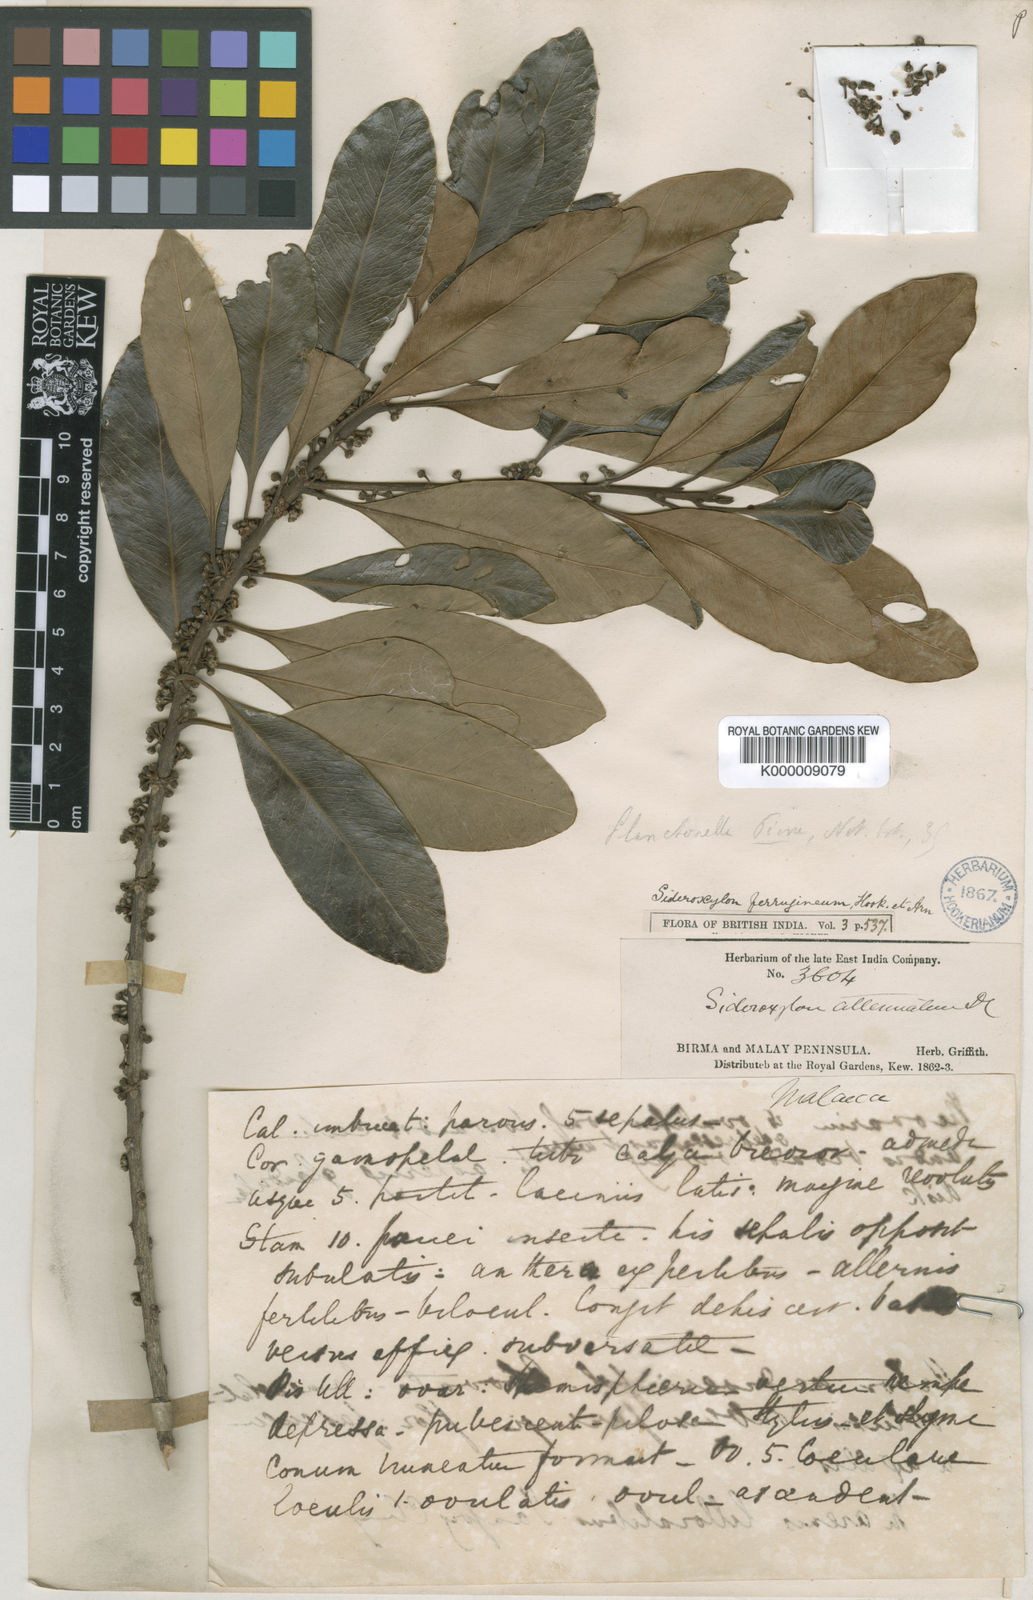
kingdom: Plantae
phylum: Tracheophyta
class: Magnoliopsida
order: Ericales
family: Sapotaceae
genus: Planchonella
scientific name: Planchonella obovata
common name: Black-ash
